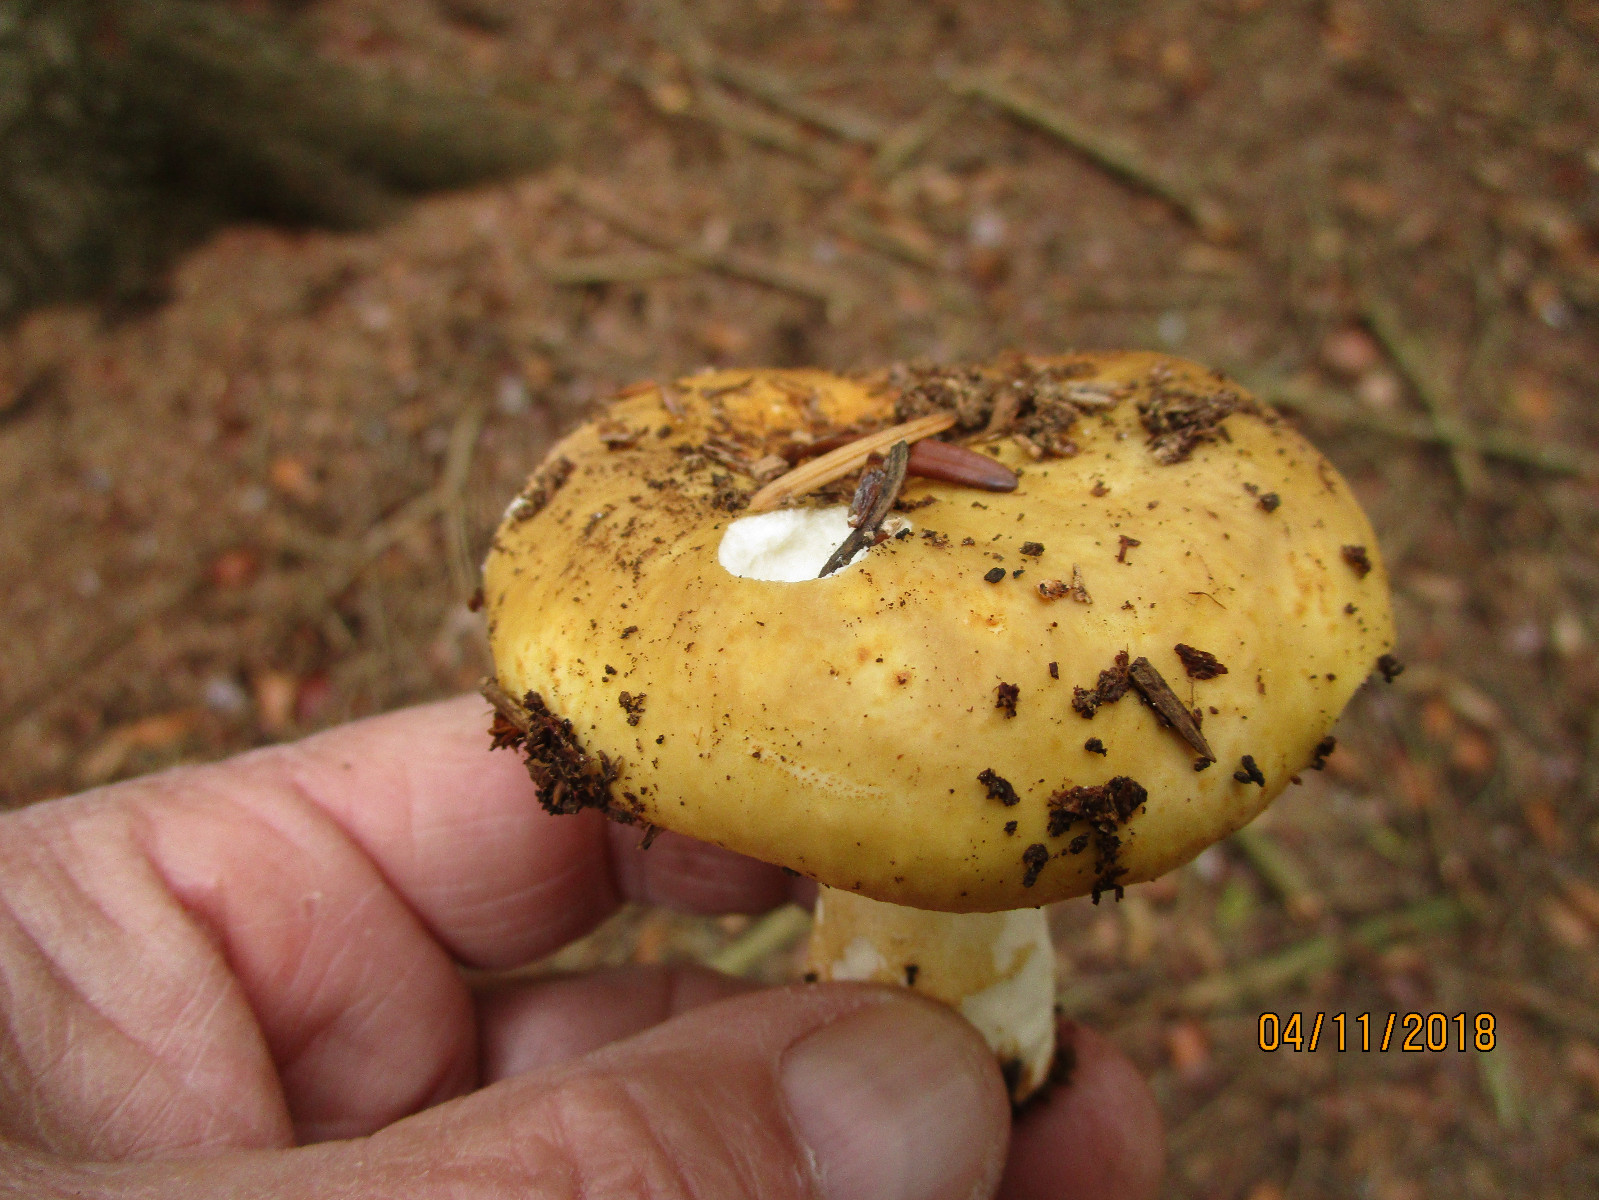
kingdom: Fungi
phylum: Basidiomycota
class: Agaricomycetes
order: Russulales
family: Russulaceae
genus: Russula
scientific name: Russula ochroleuca
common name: okkergul skørhat
